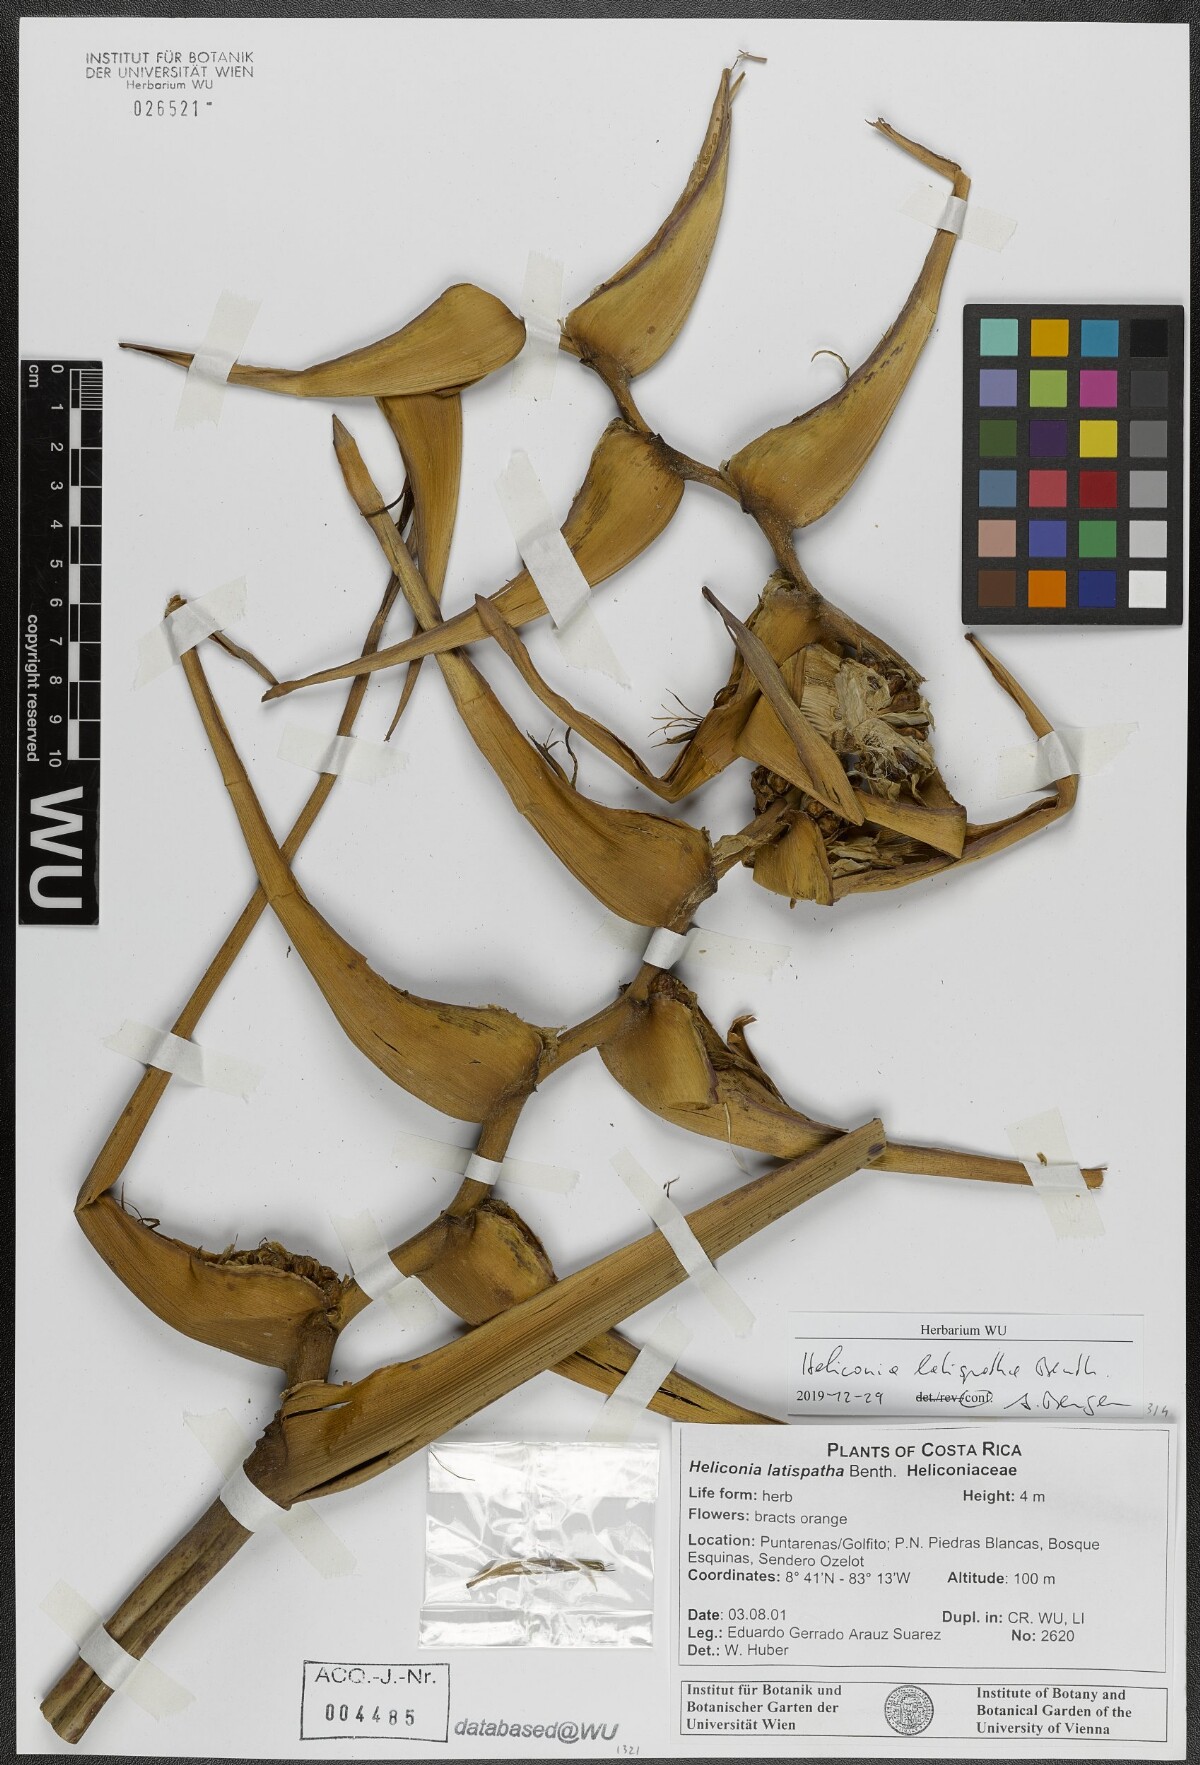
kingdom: Plantae
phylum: Tracheophyta
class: Liliopsida
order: Zingiberales
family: Heliconiaceae
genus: Heliconia
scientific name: Heliconia latispatha
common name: Expanded lobsterclaw
